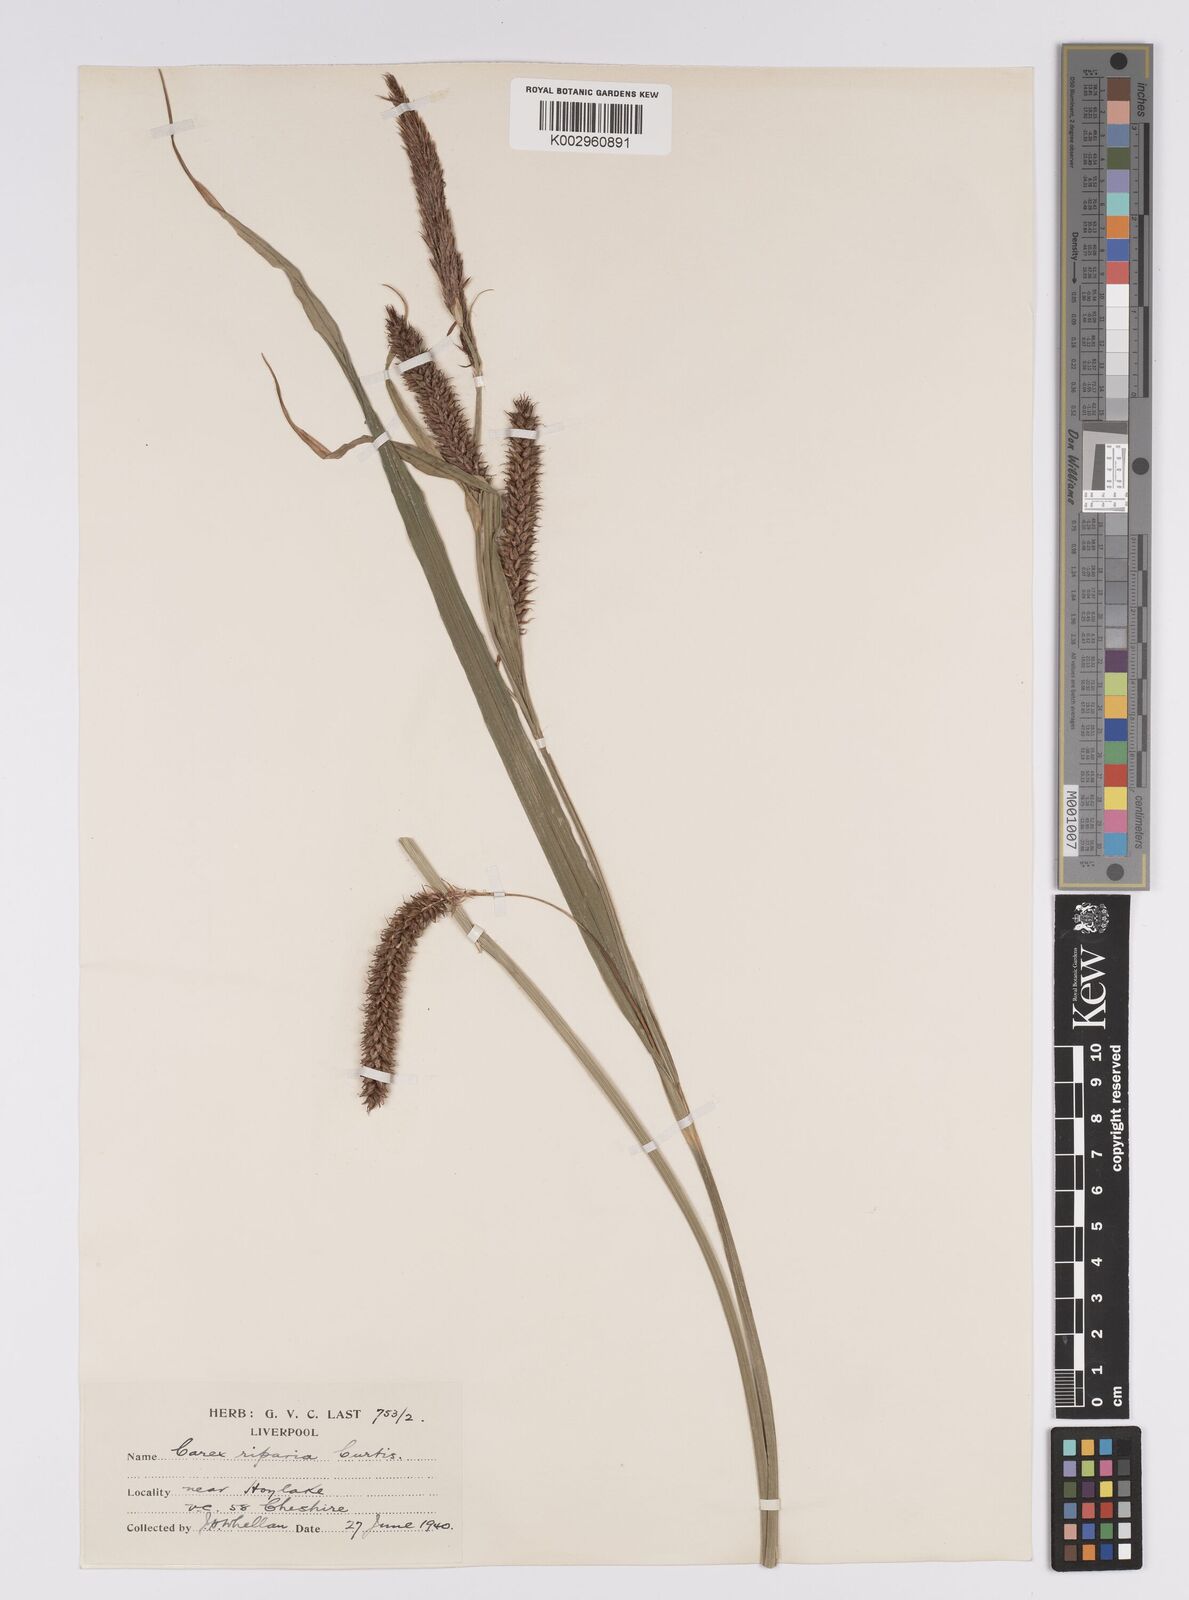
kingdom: Plantae
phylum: Tracheophyta
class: Liliopsida
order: Poales
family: Cyperaceae
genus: Carex
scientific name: Carex riparia
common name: Greater pond-sedge
